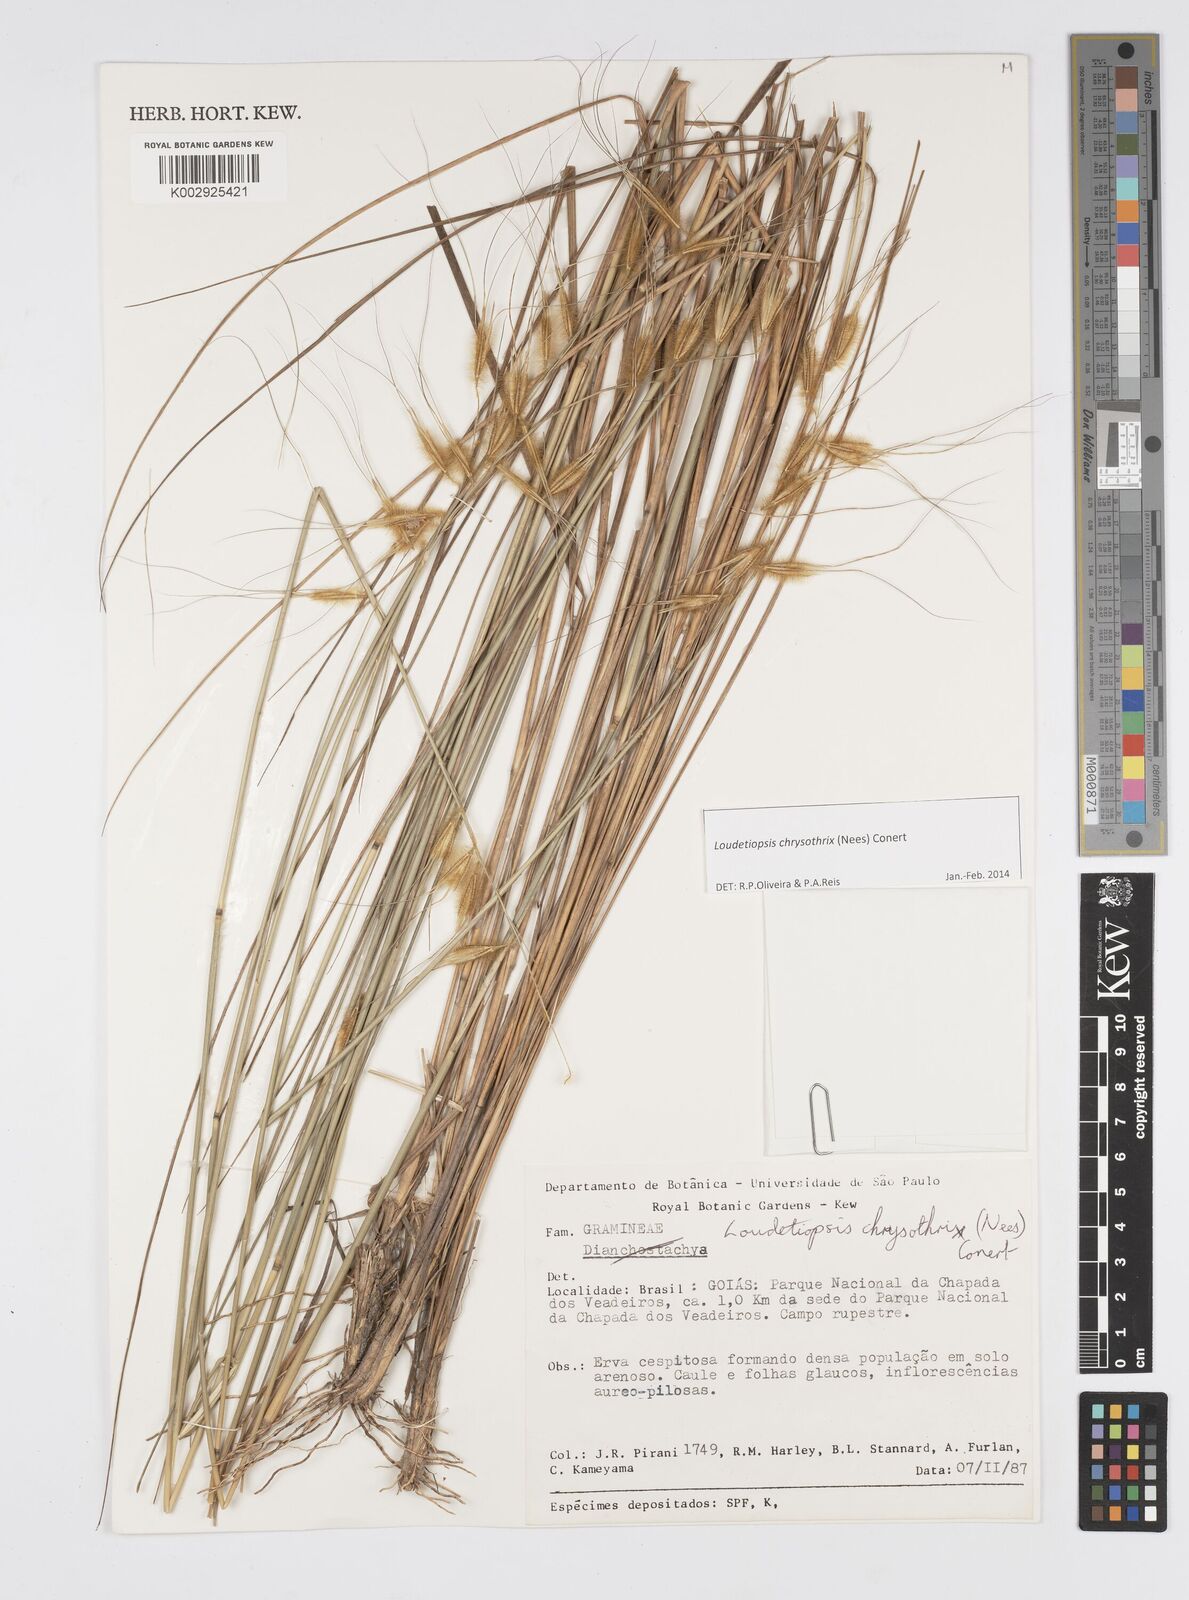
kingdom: Plantae
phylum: Tracheophyta
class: Liliopsida
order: Poales
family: Poaceae
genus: Loudetiopsis
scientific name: Loudetiopsis chrysothrix
